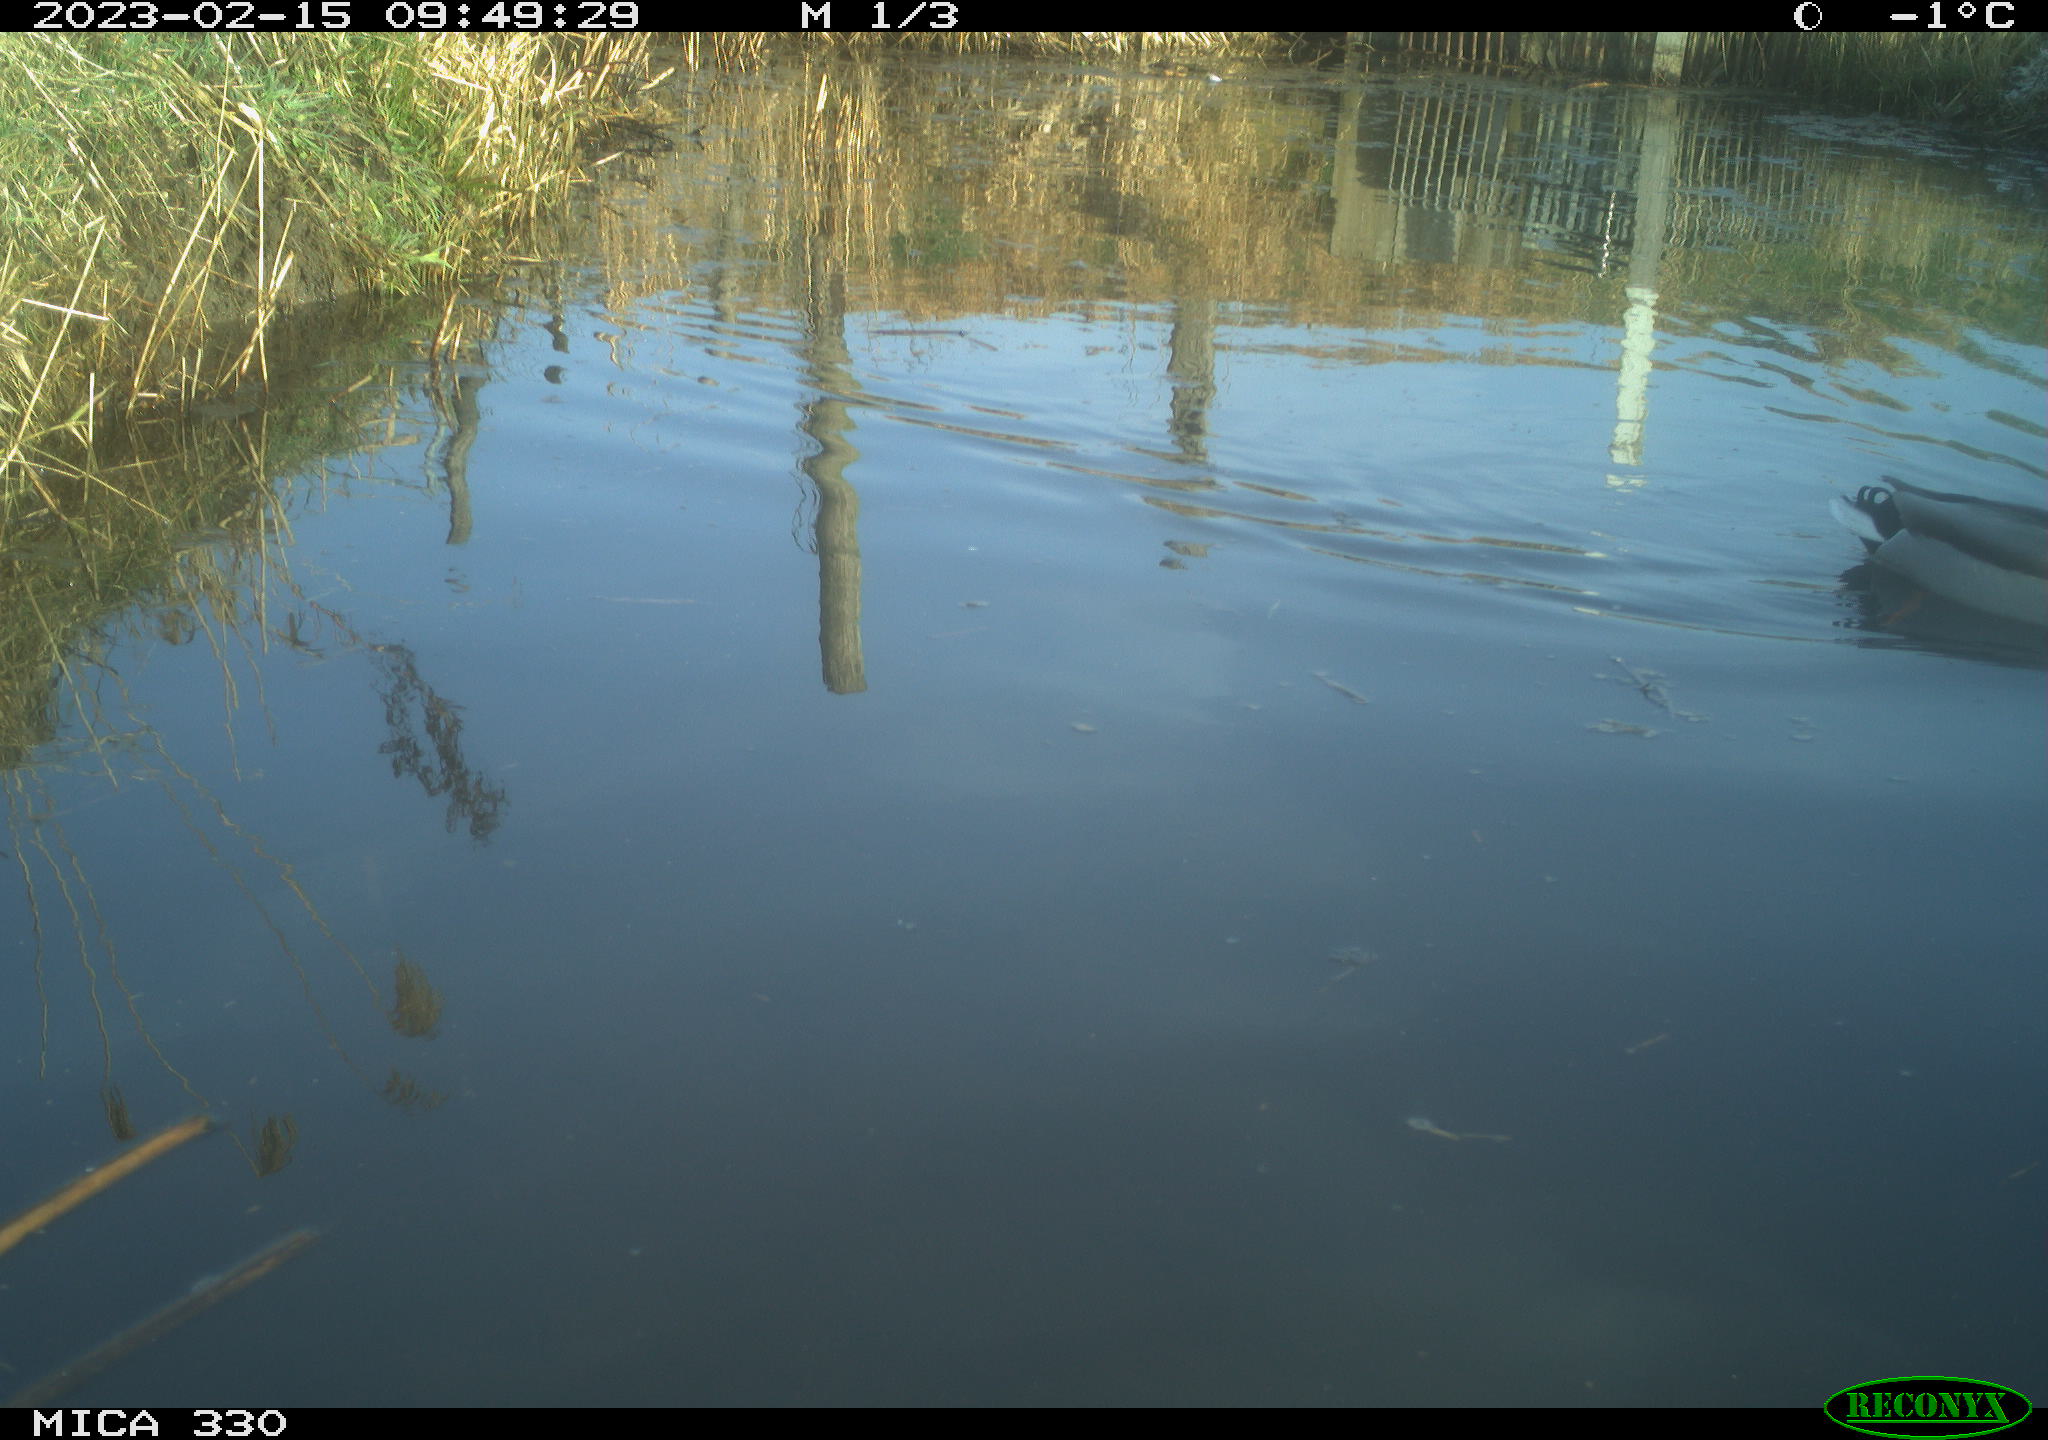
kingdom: Animalia
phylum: Chordata
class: Aves
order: Anseriformes
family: Anatidae
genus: Anas
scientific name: Anas
